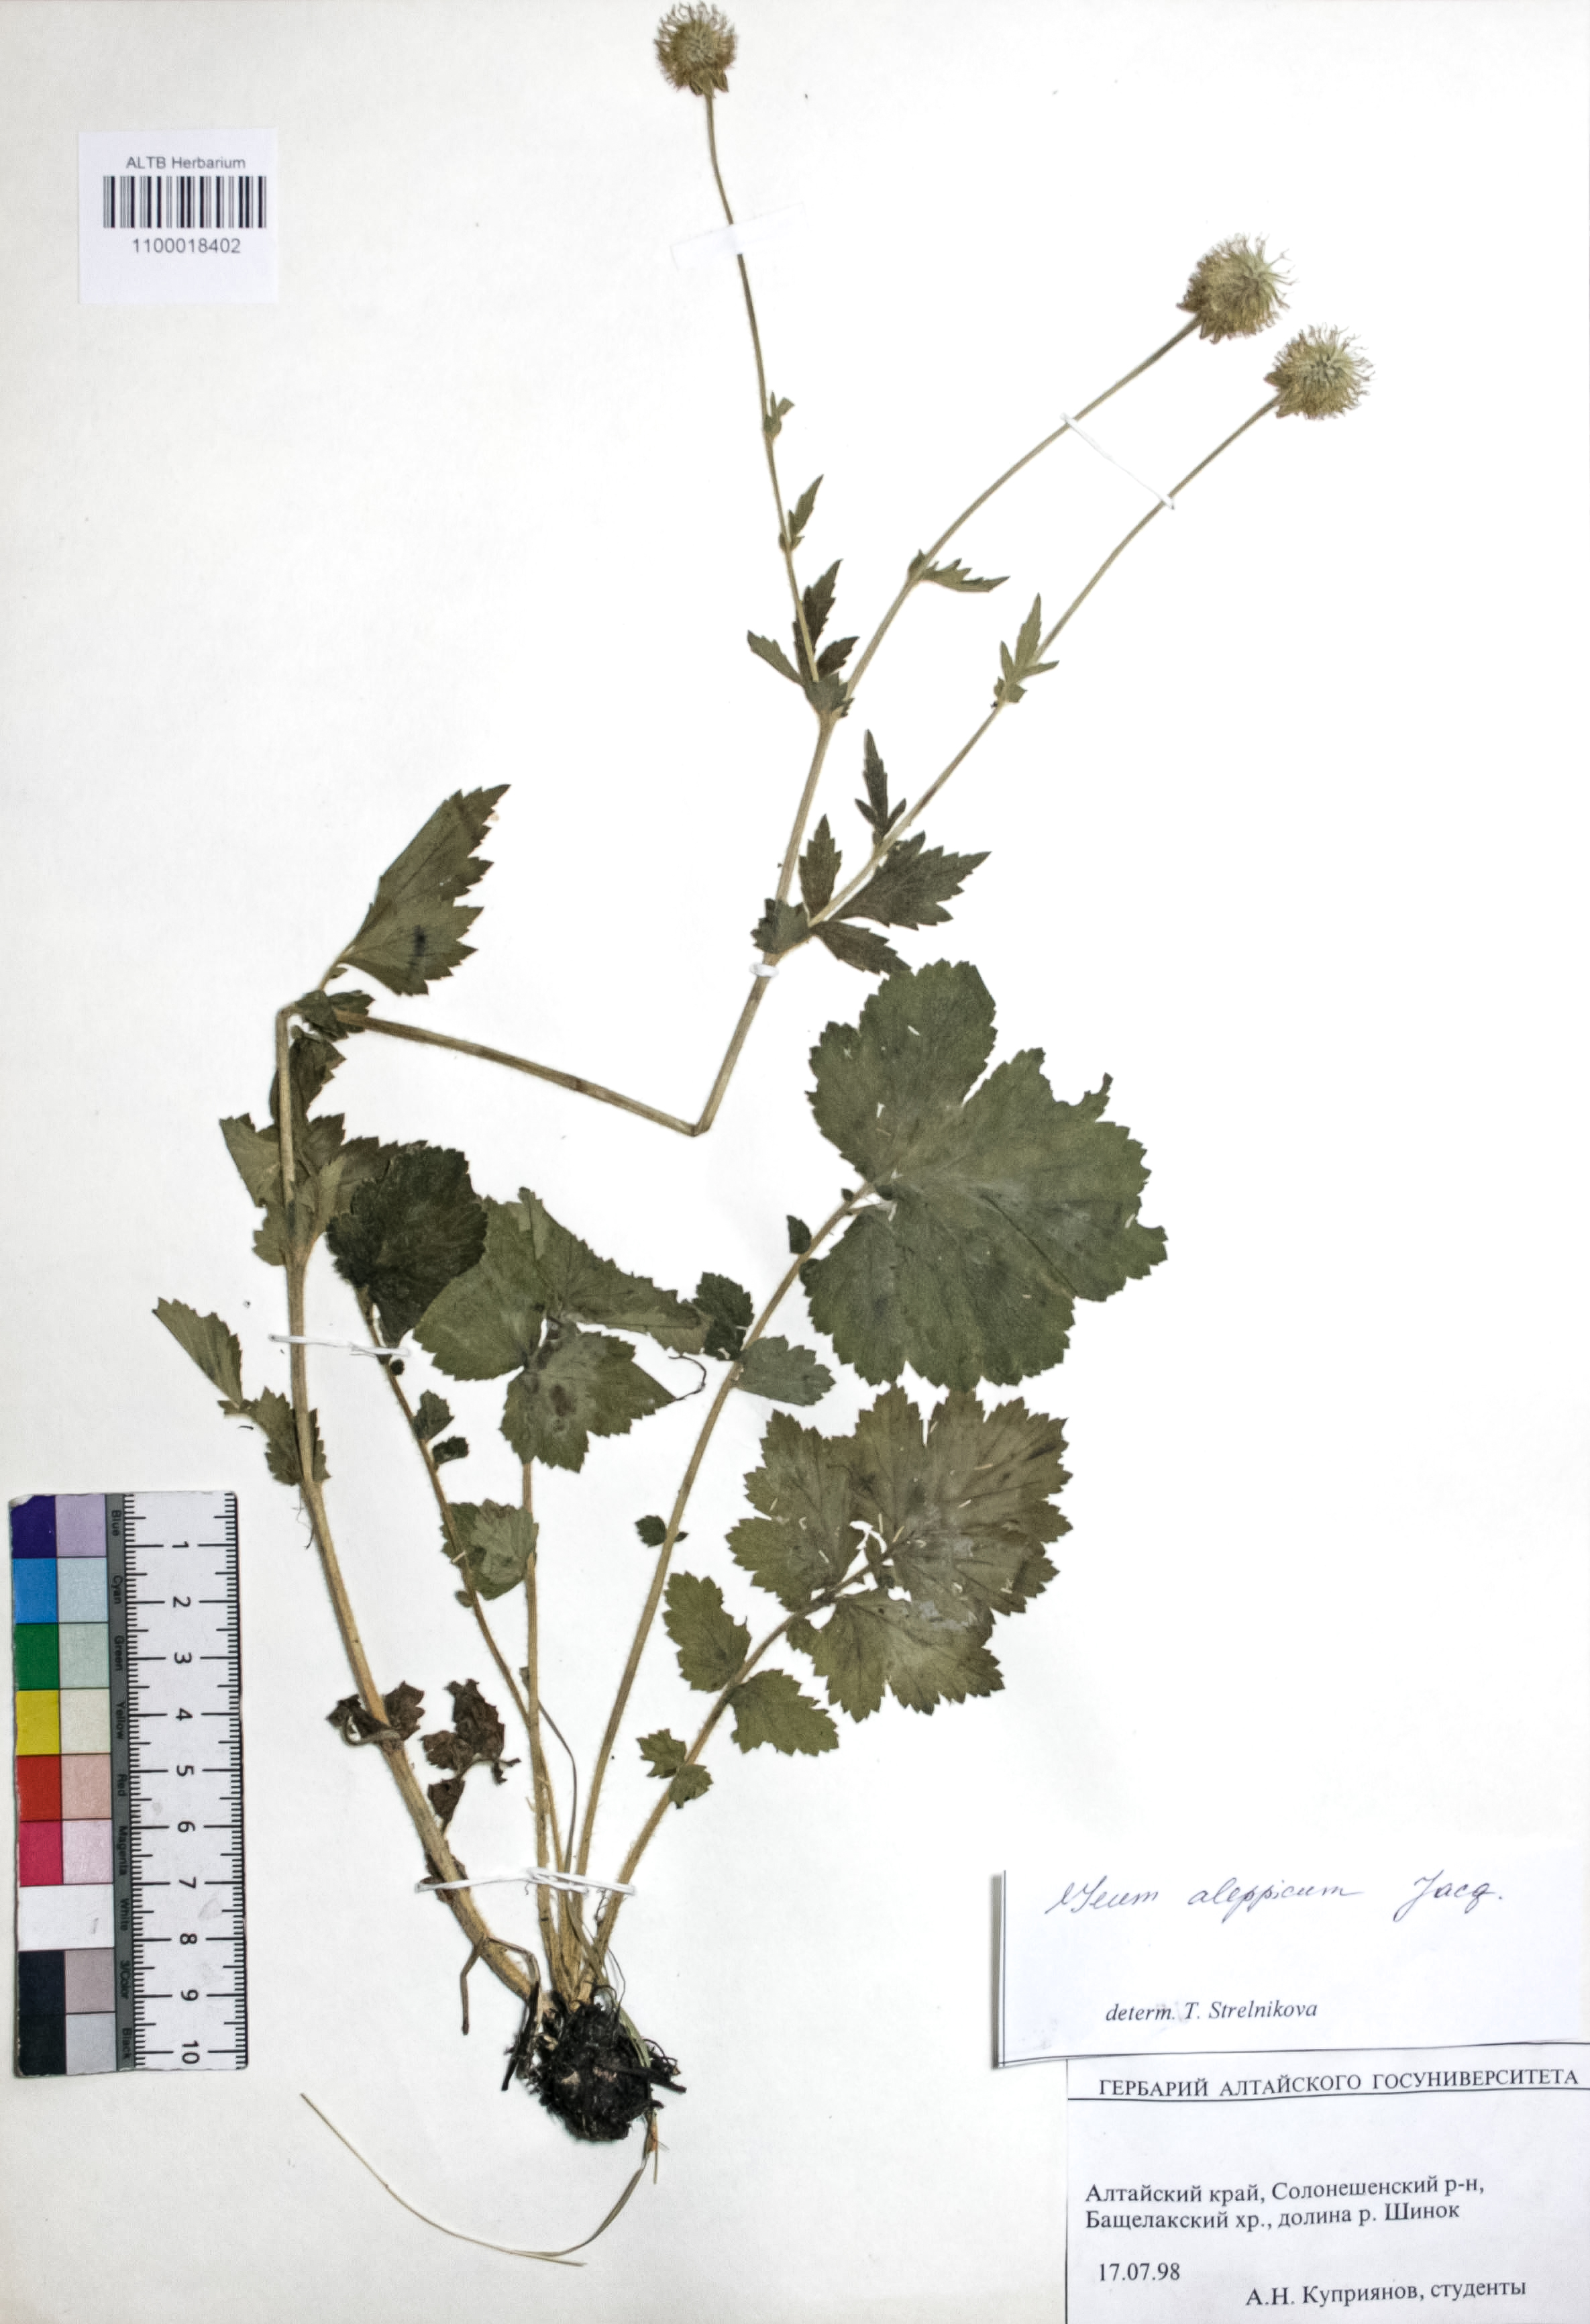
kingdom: Plantae
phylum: Tracheophyta
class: Magnoliopsida
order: Rosales
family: Rosaceae
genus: Geum
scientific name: Geum aleppicum
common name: Yellow avens
